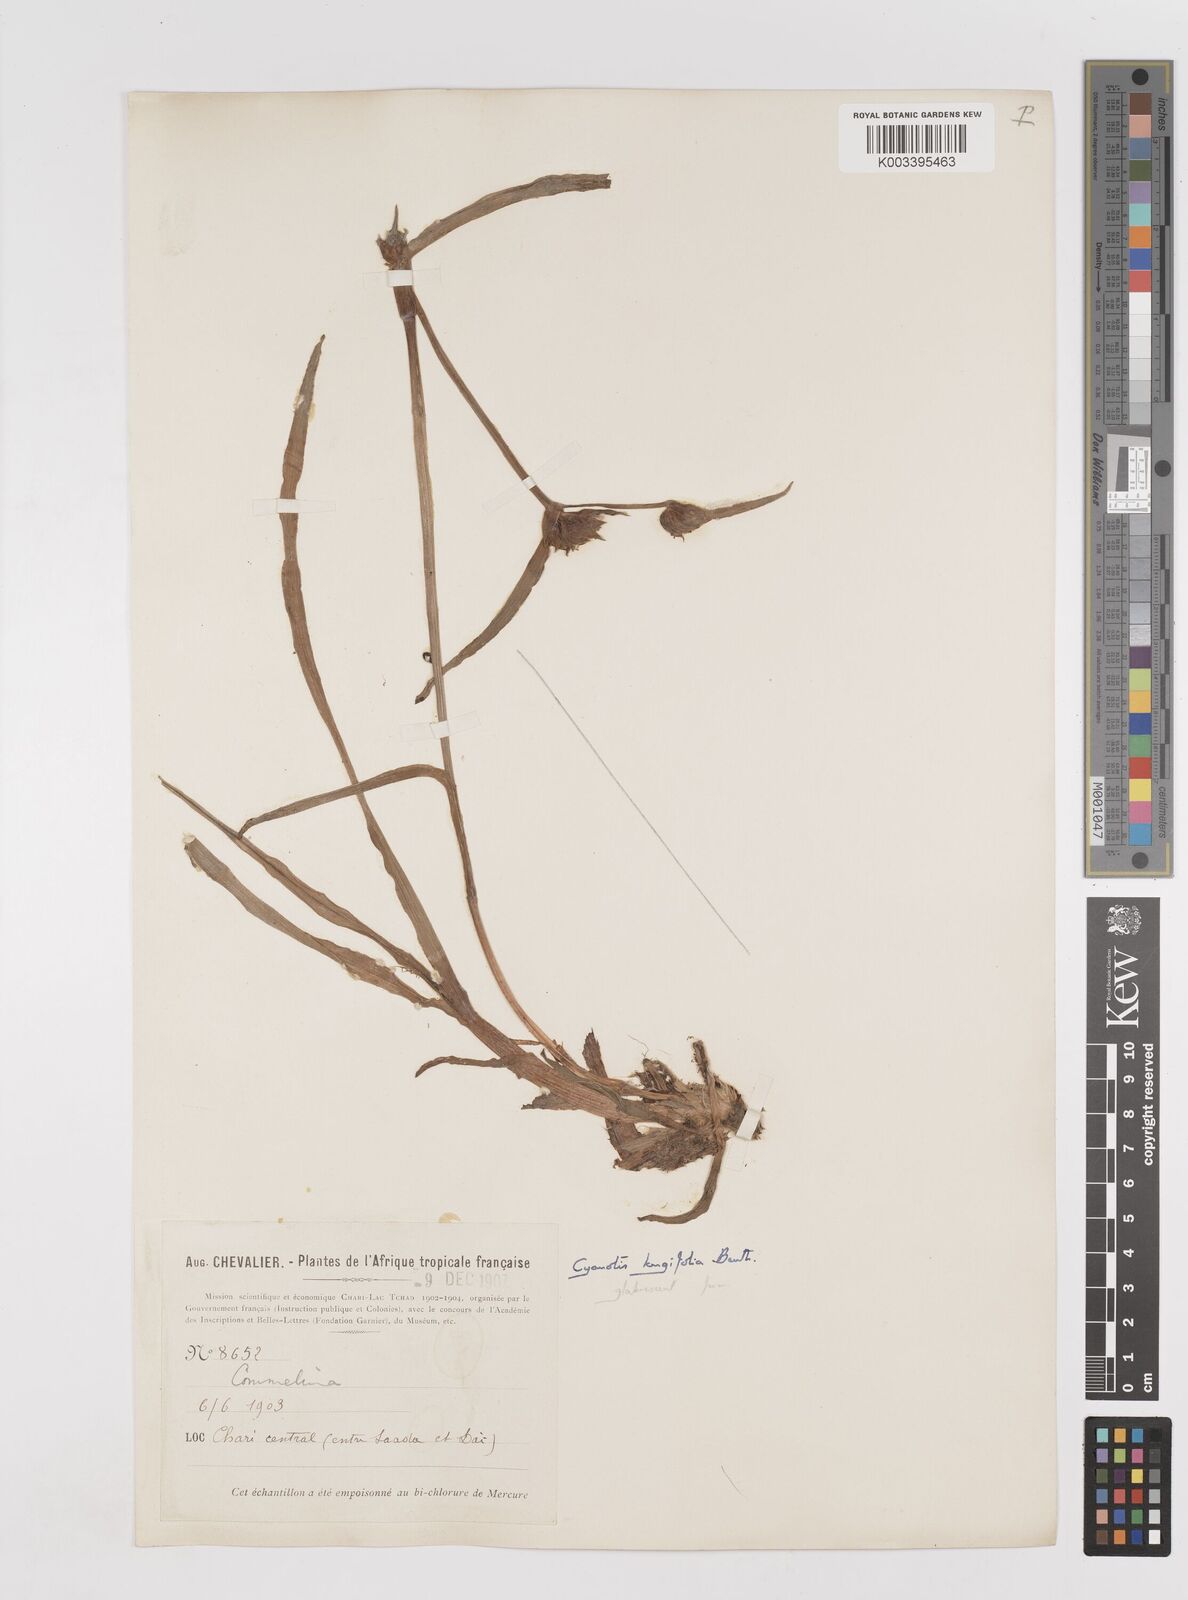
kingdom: Plantae
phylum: Tracheophyta
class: Liliopsida
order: Commelinales
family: Commelinaceae
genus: Cyanotis
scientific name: Cyanotis longifolia
